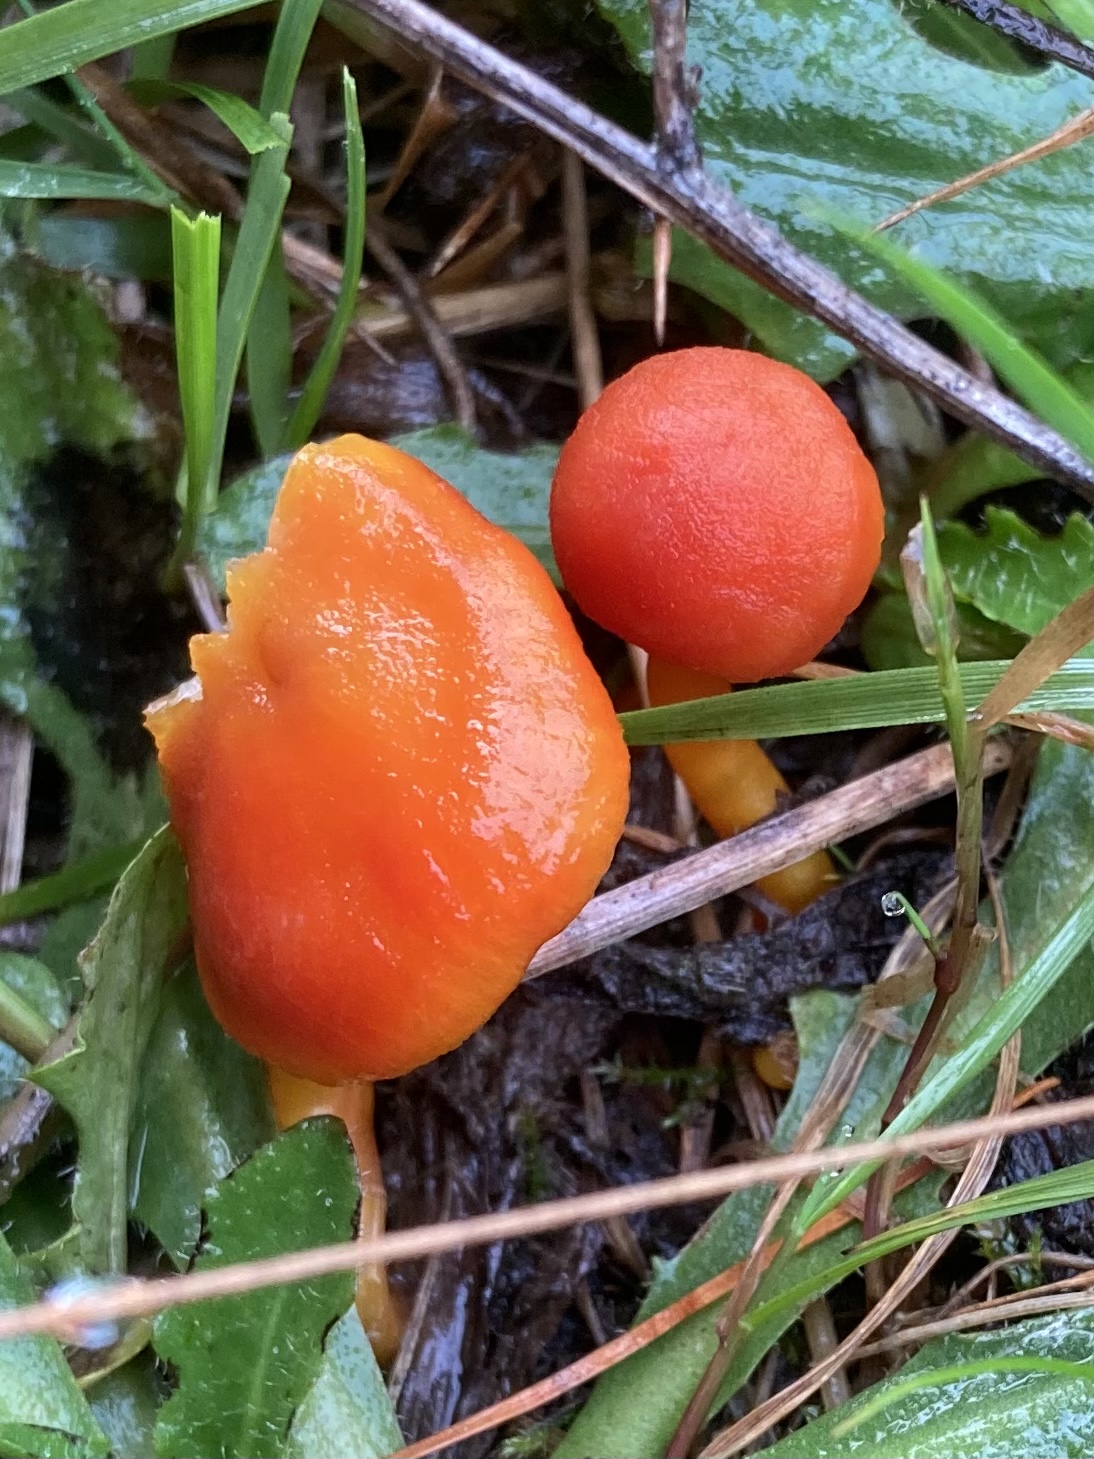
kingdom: Fungi
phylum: Basidiomycota
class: Agaricomycetes
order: Agaricales
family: Hygrophoraceae
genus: Hygrocybe
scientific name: Hygrocybe miniata
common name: mønje-vokshat
